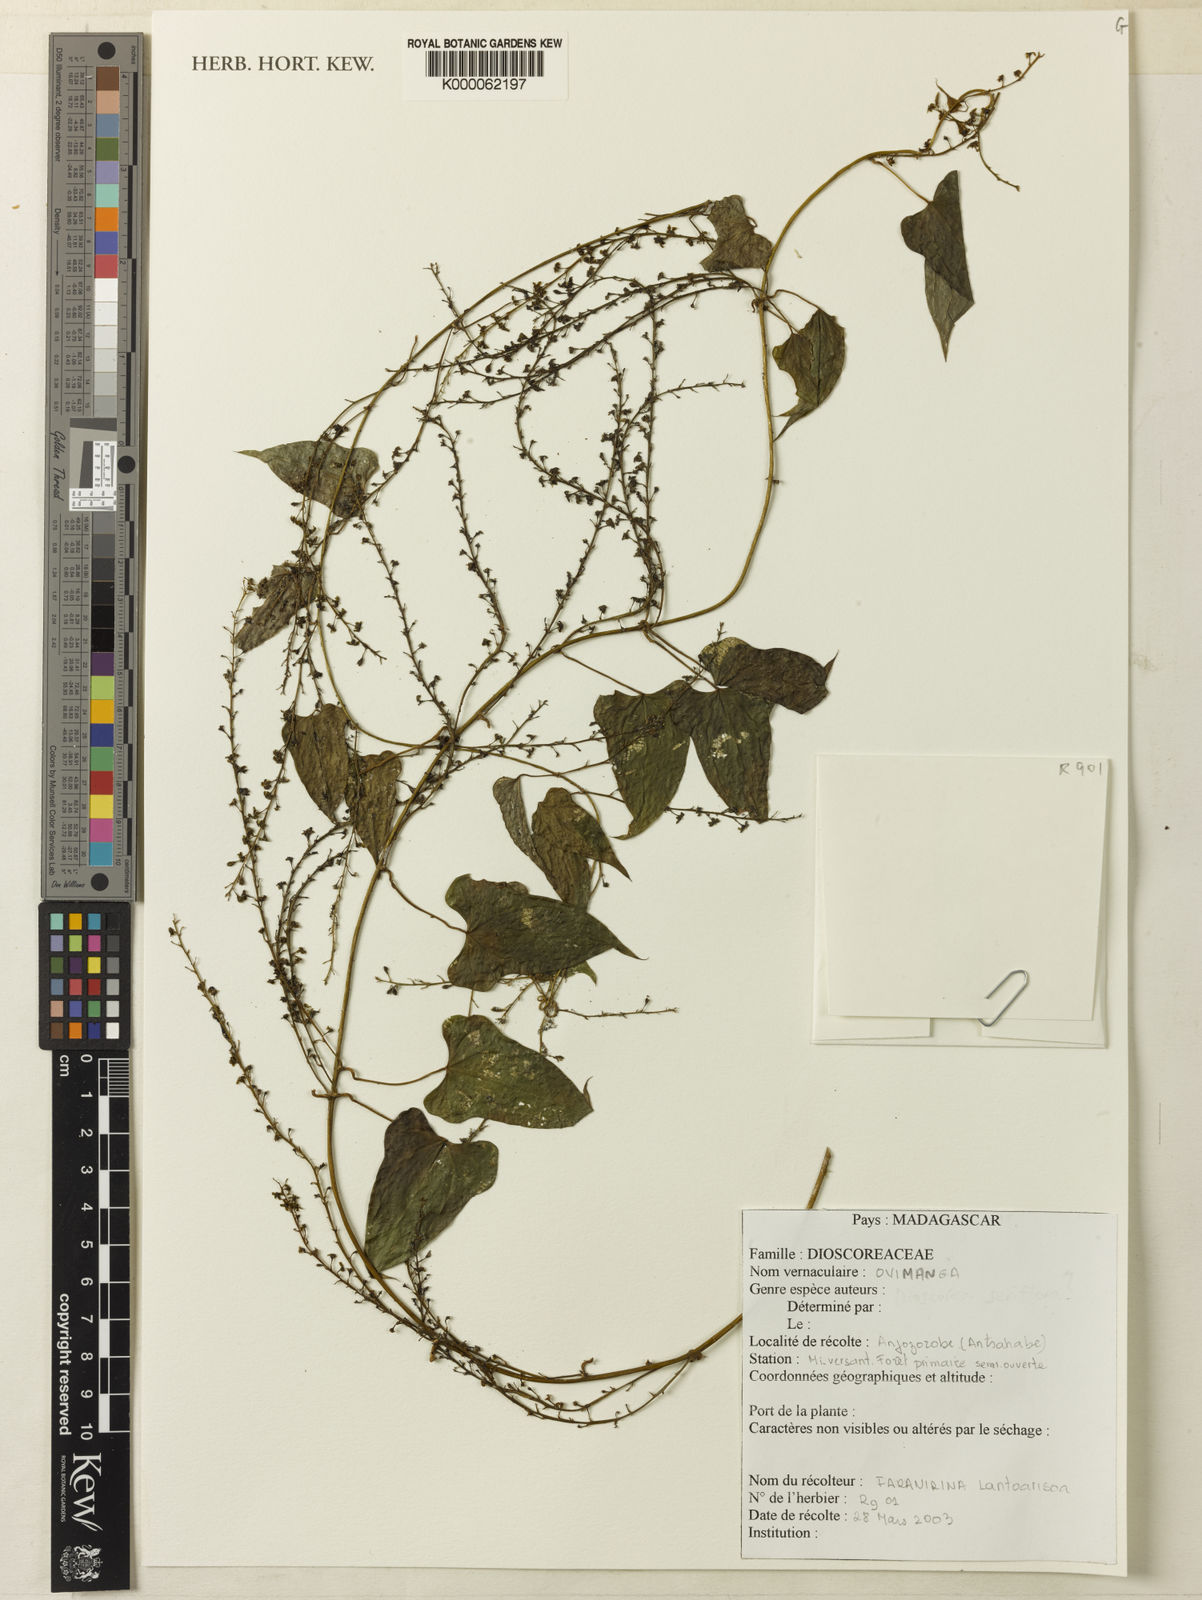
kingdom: Plantae
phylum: Tracheophyta
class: Liliopsida
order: Dioscoreales
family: Dioscoreaceae
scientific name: Dioscoreaceae
